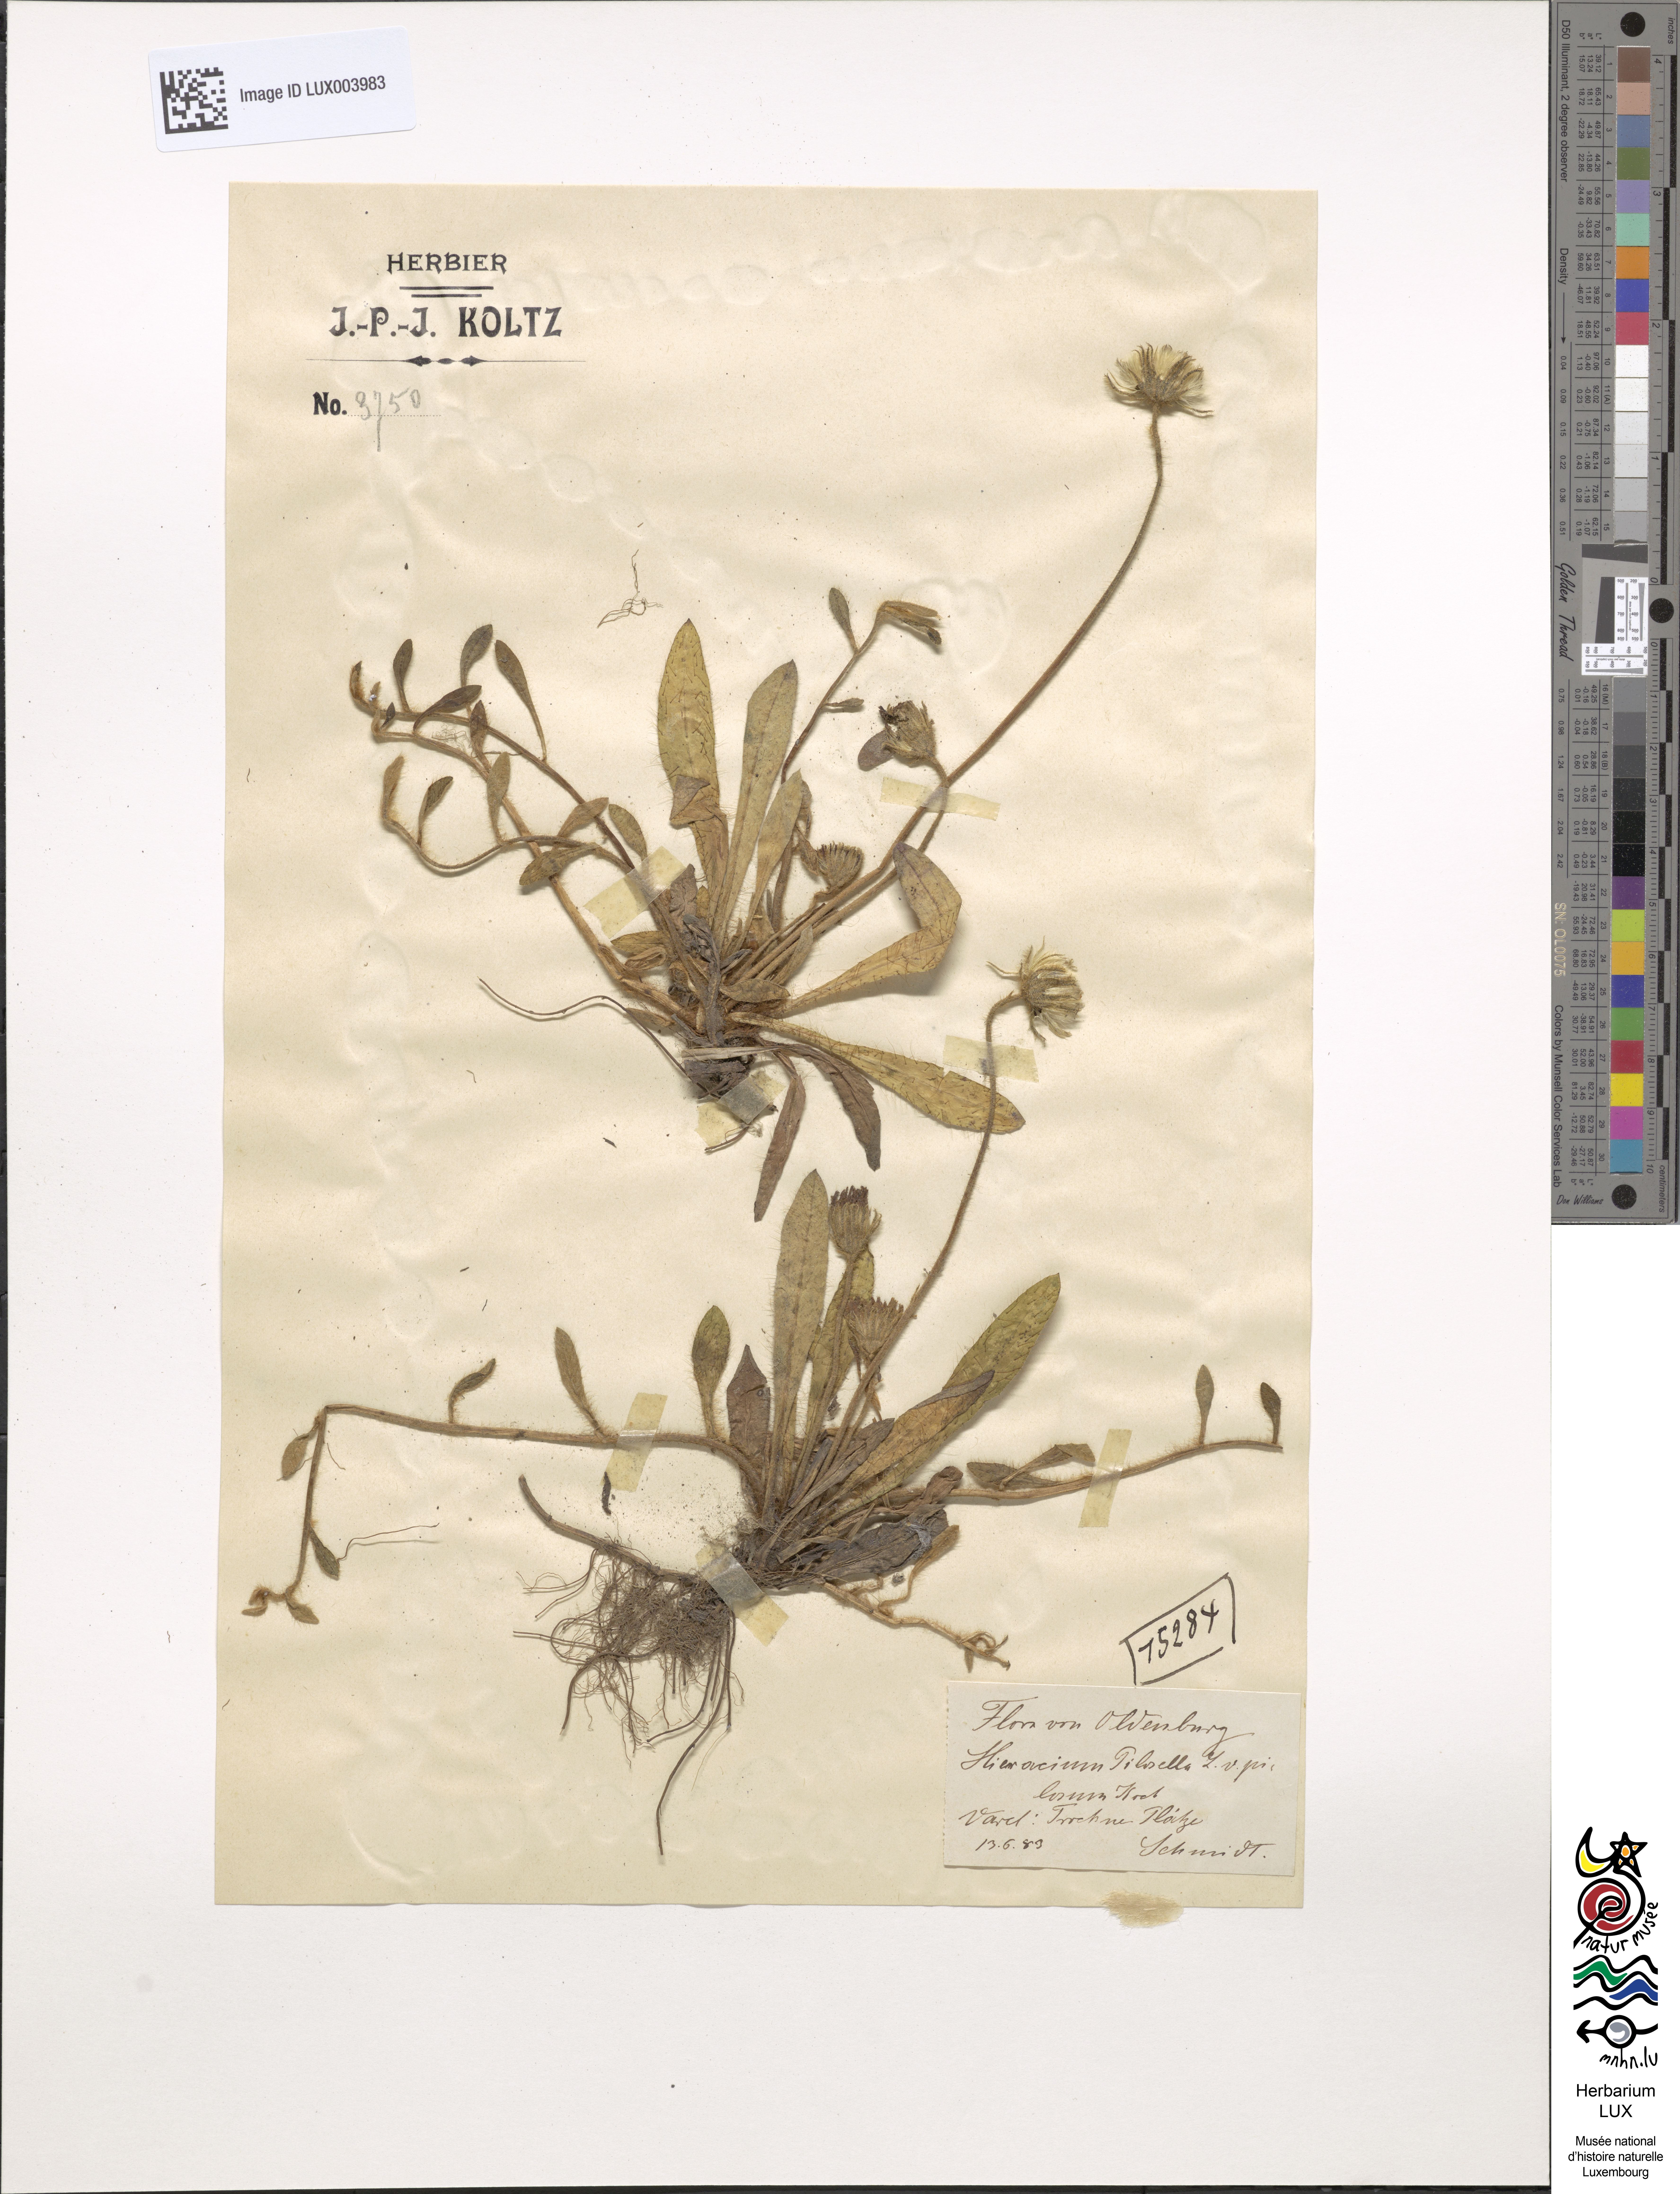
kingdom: Plantae
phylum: Tracheophyta
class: Magnoliopsida
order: Asterales
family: Asteraceae
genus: Pilosella
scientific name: Pilosella officinarum
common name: Mouse-ear hawkweed
